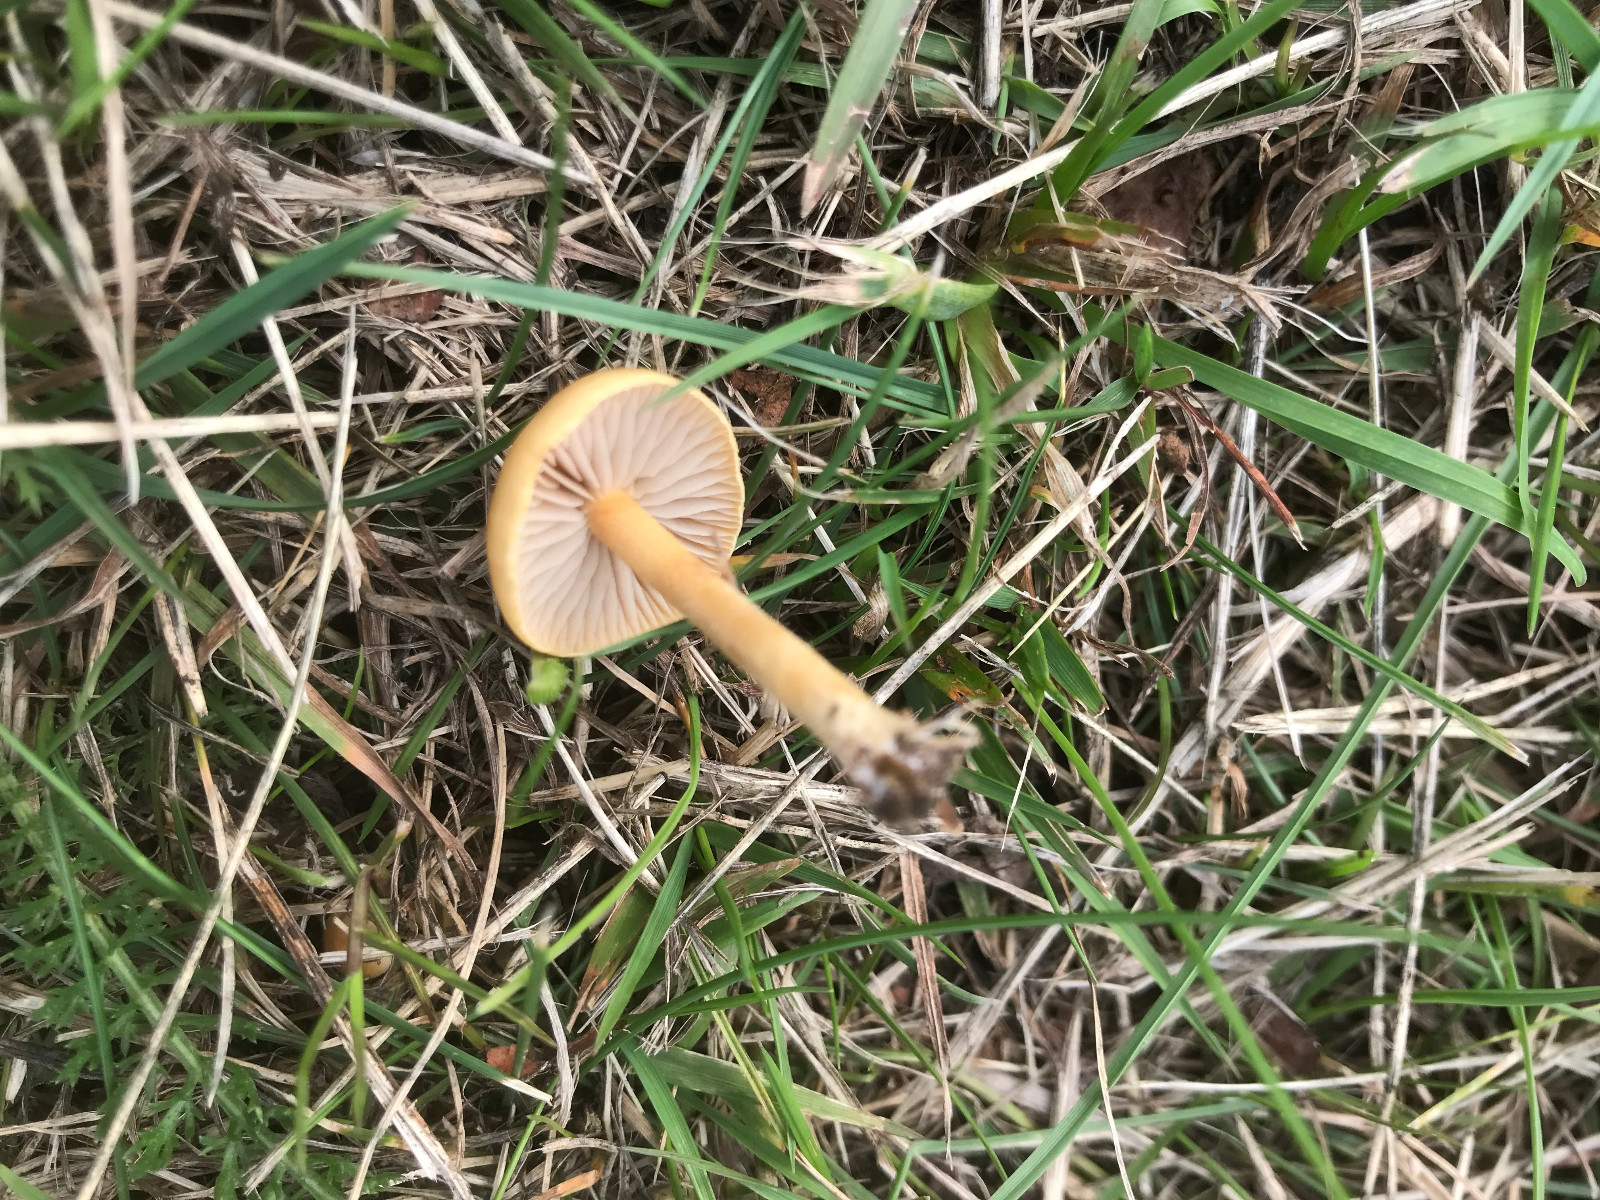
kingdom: Fungi
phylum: Basidiomycota
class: Agaricomycetes
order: Agaricales
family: Strophariaceae
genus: Agrocybe
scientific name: Agrocybe pediades
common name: almindelig agerhat
